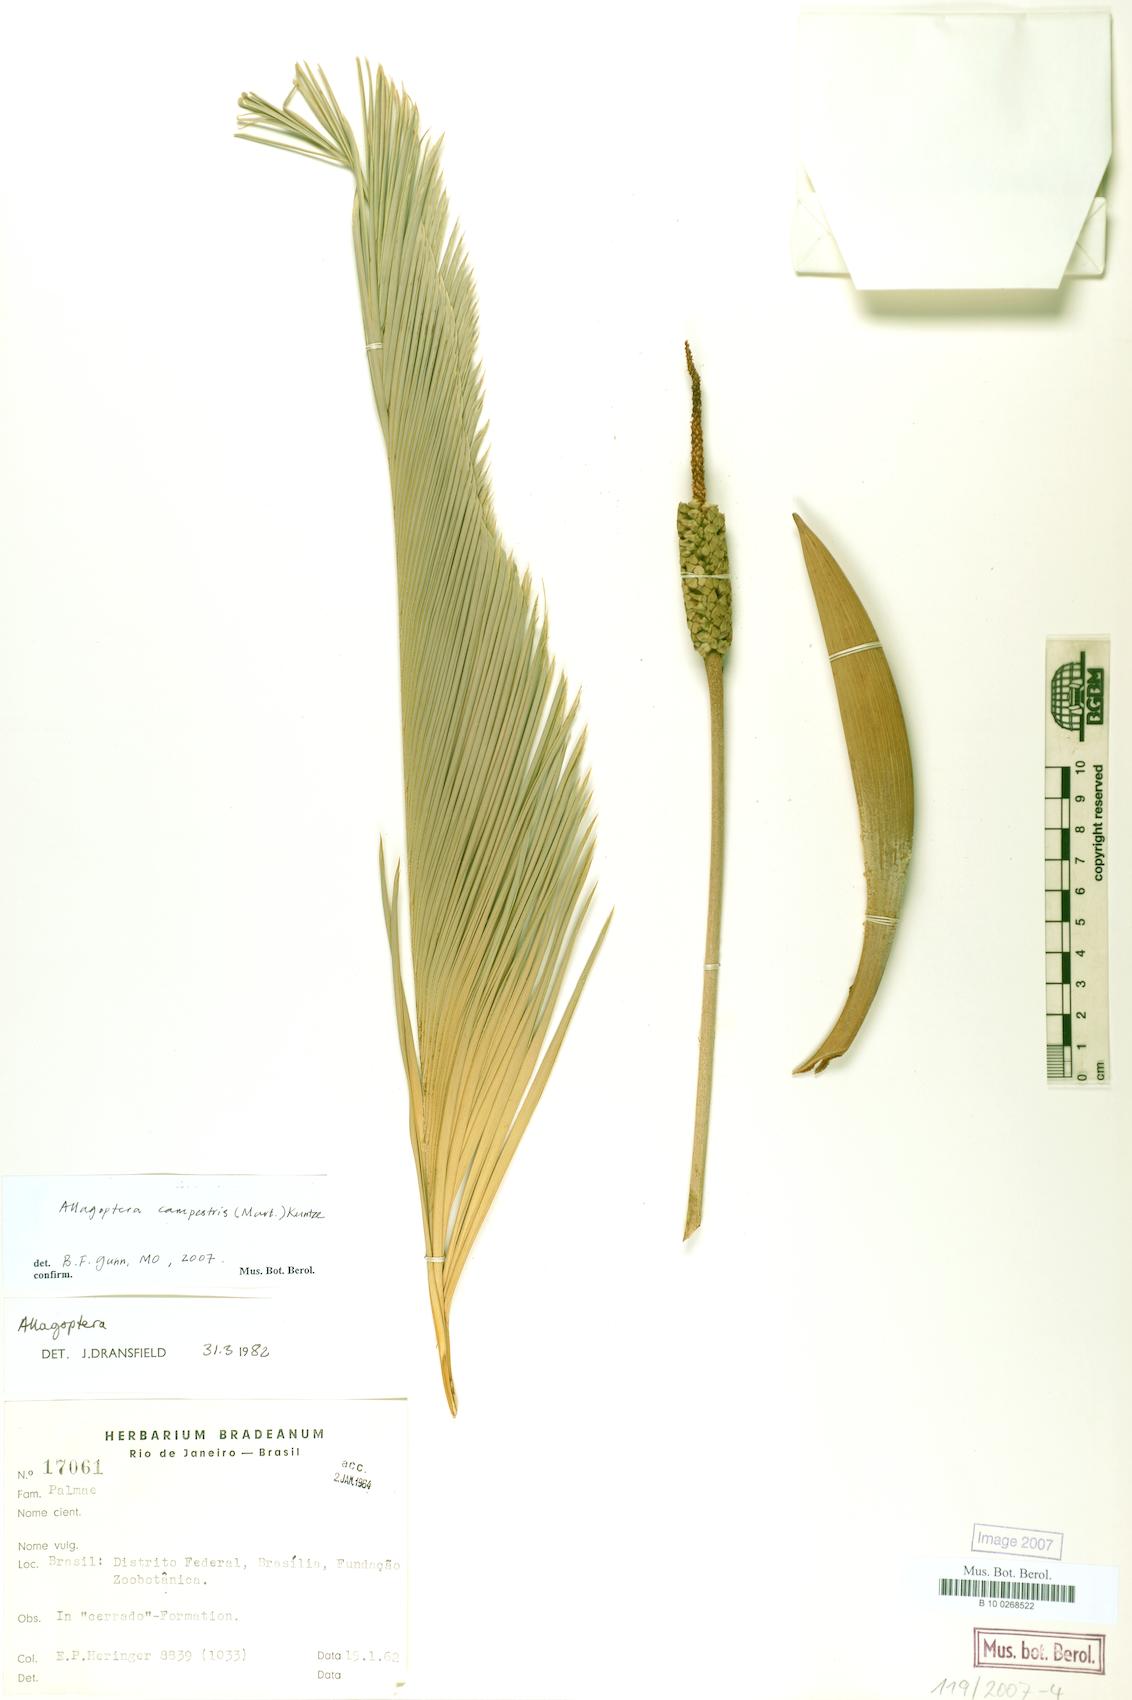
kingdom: Plantae
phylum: Tracheophyta
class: Liliopsida
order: Arecales
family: Arecaceae
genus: Allagoptera
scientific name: Allagoptera campestris
